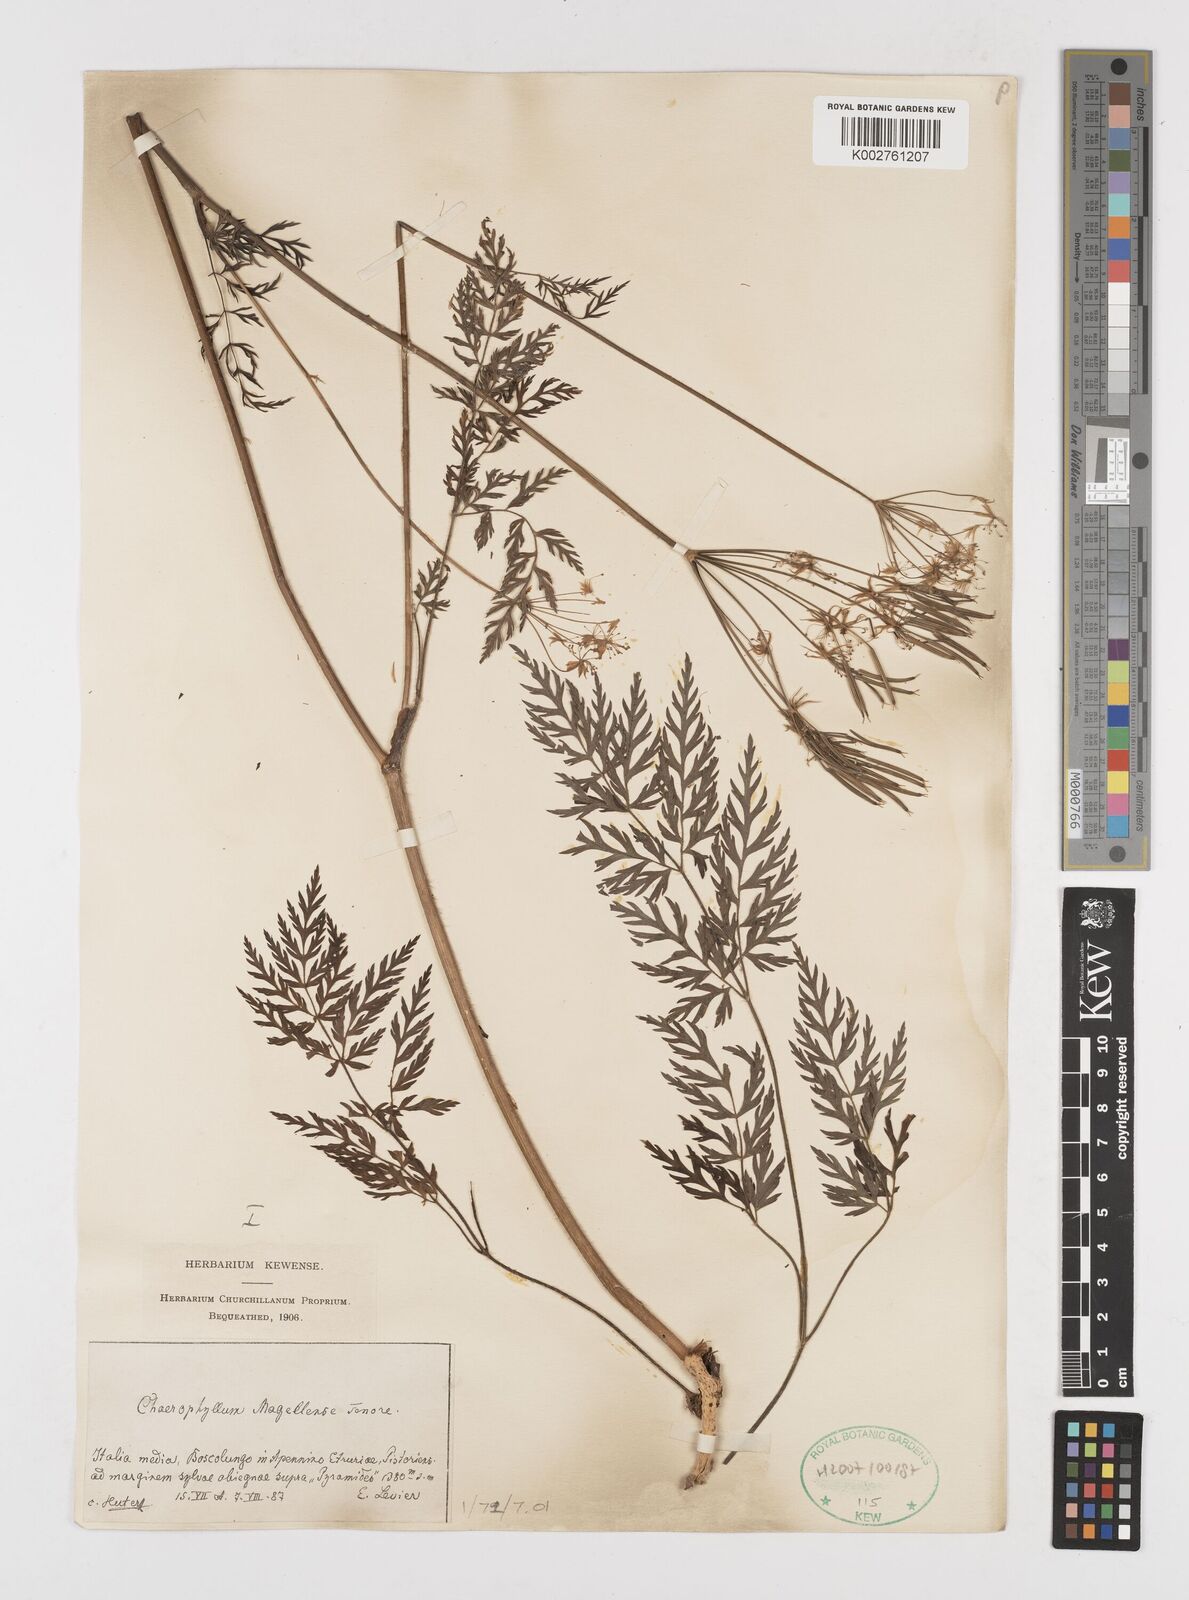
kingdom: Plantae
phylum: Tracheophyta
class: Magnoliopsida
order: Apiales
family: Apiaceae
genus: Chaerophyllum
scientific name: Chaerophyllum hirsutum
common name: Hairy chervil
